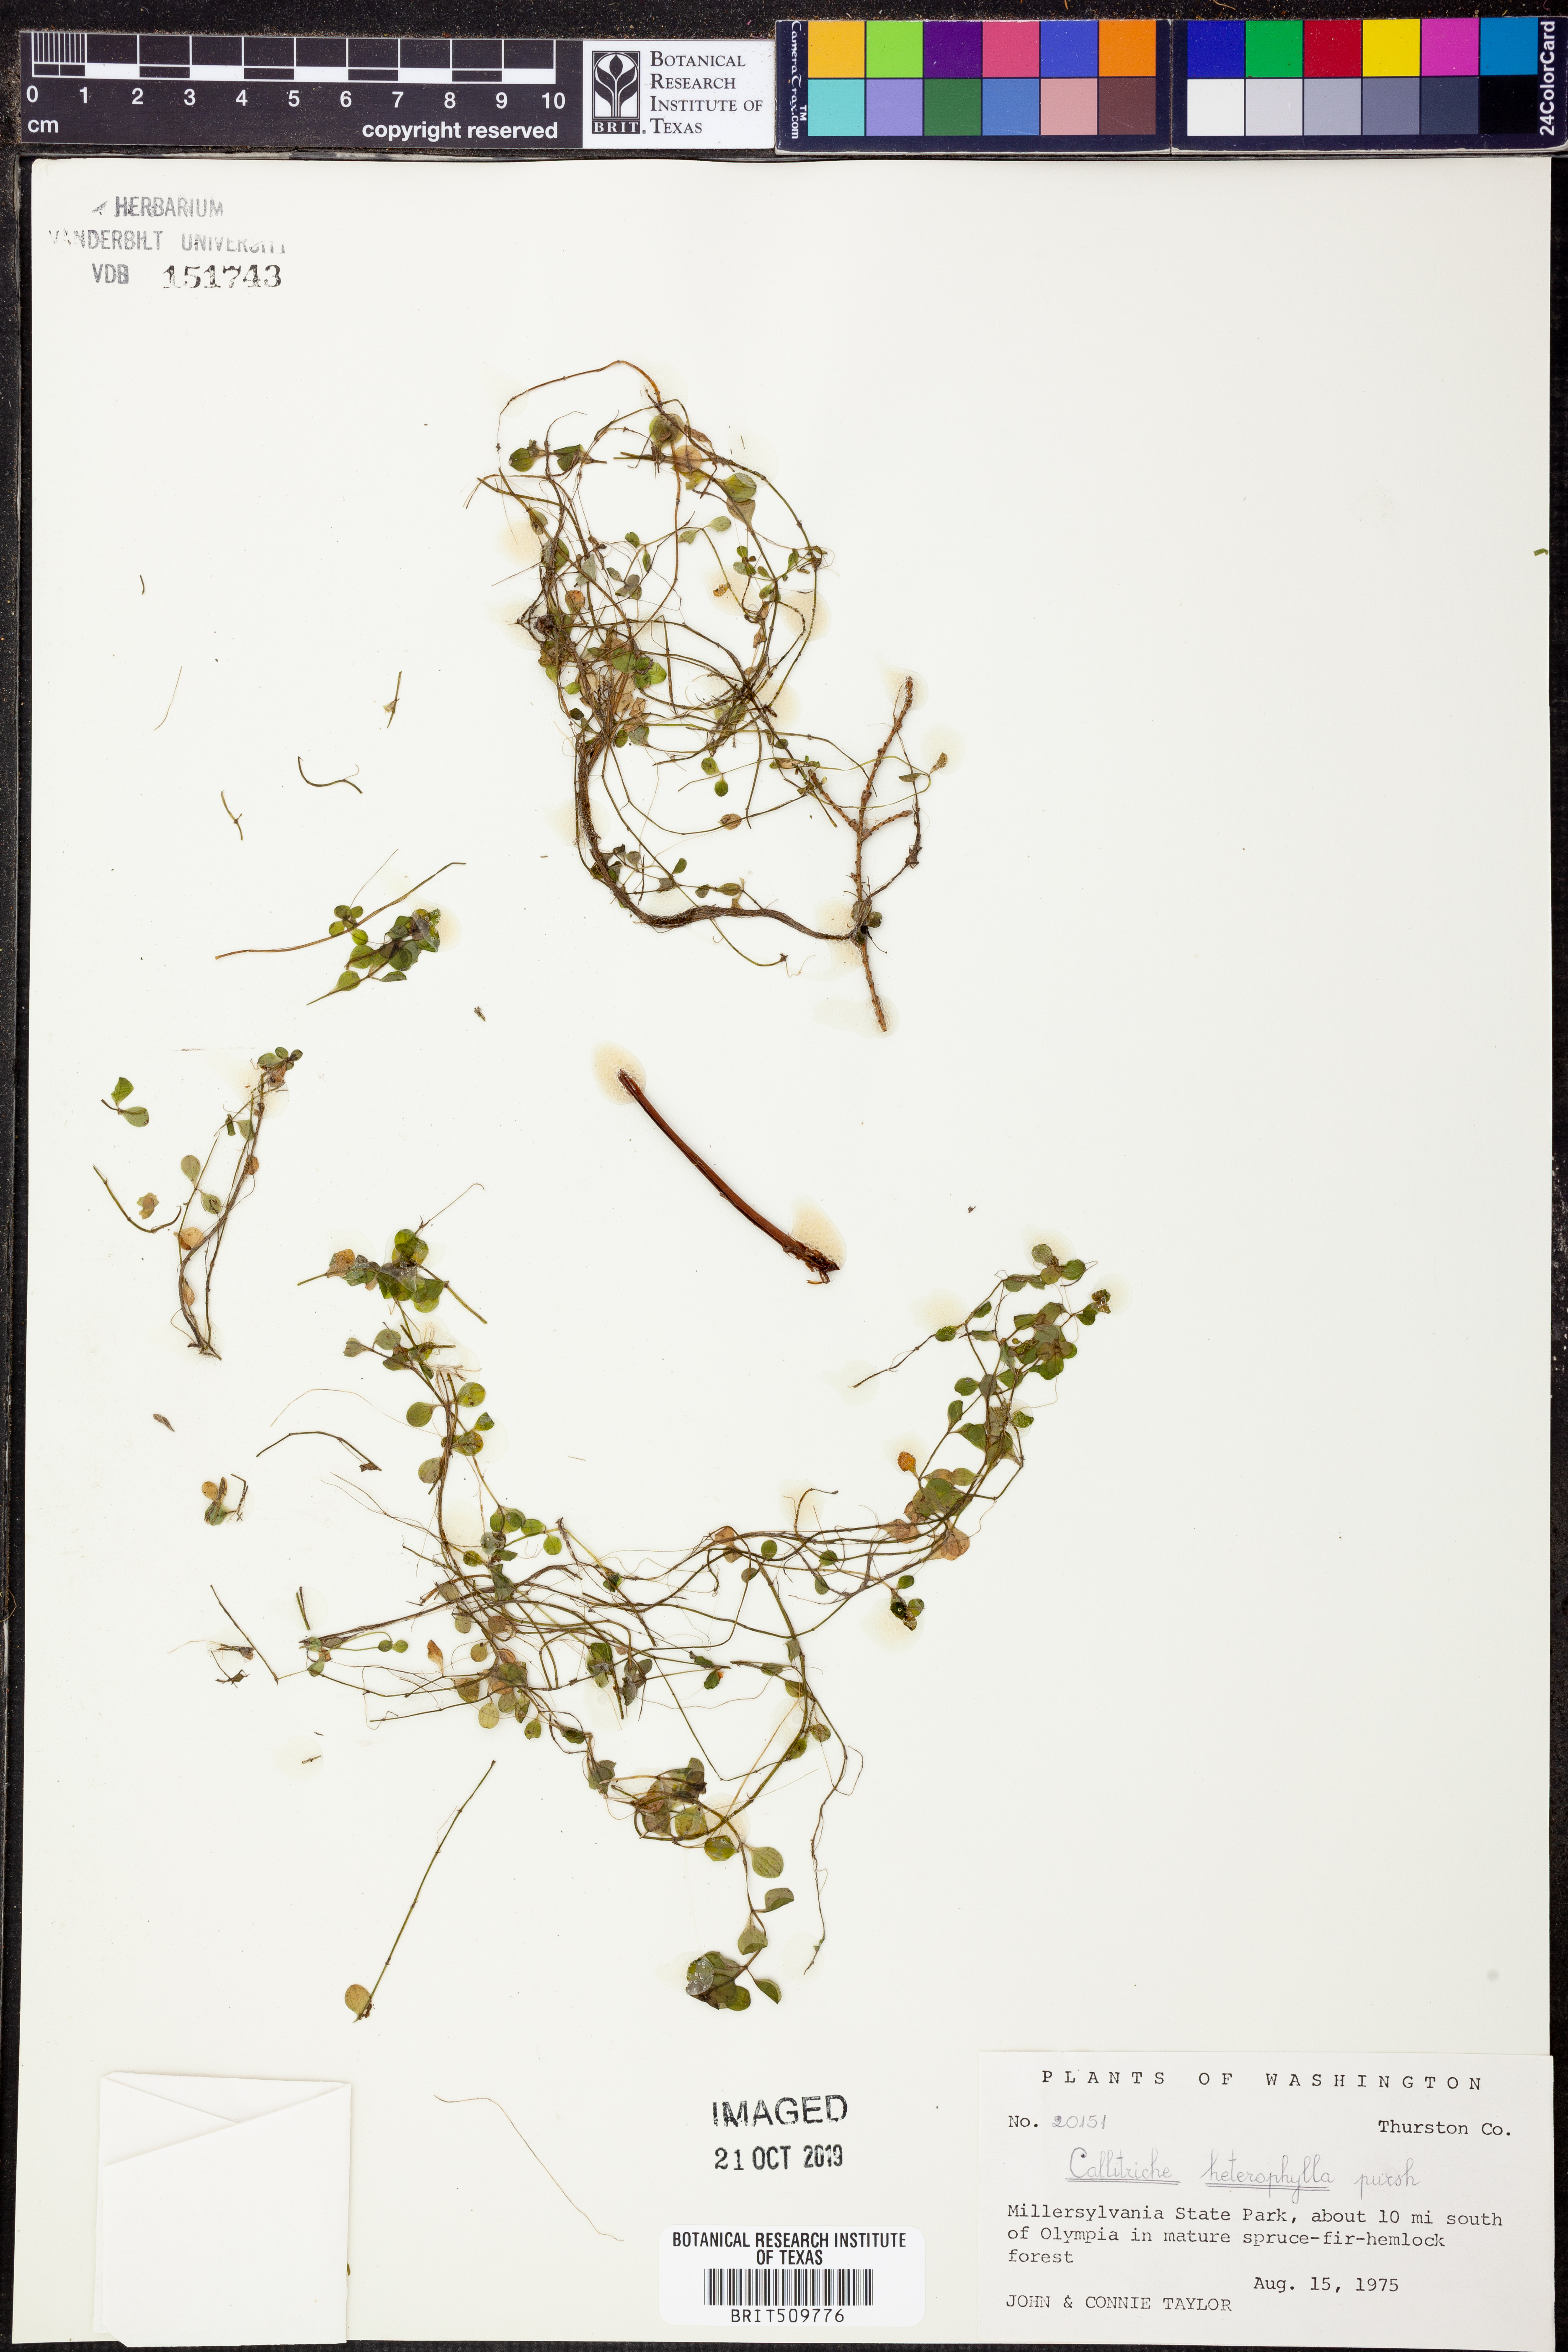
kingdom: Plantae
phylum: Tracheophyta
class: Magnoliopsida
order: Lamiales
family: Plantaginaceae
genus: Callitriche
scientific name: Callitriche heterophylla
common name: Two-headed water-starwort
